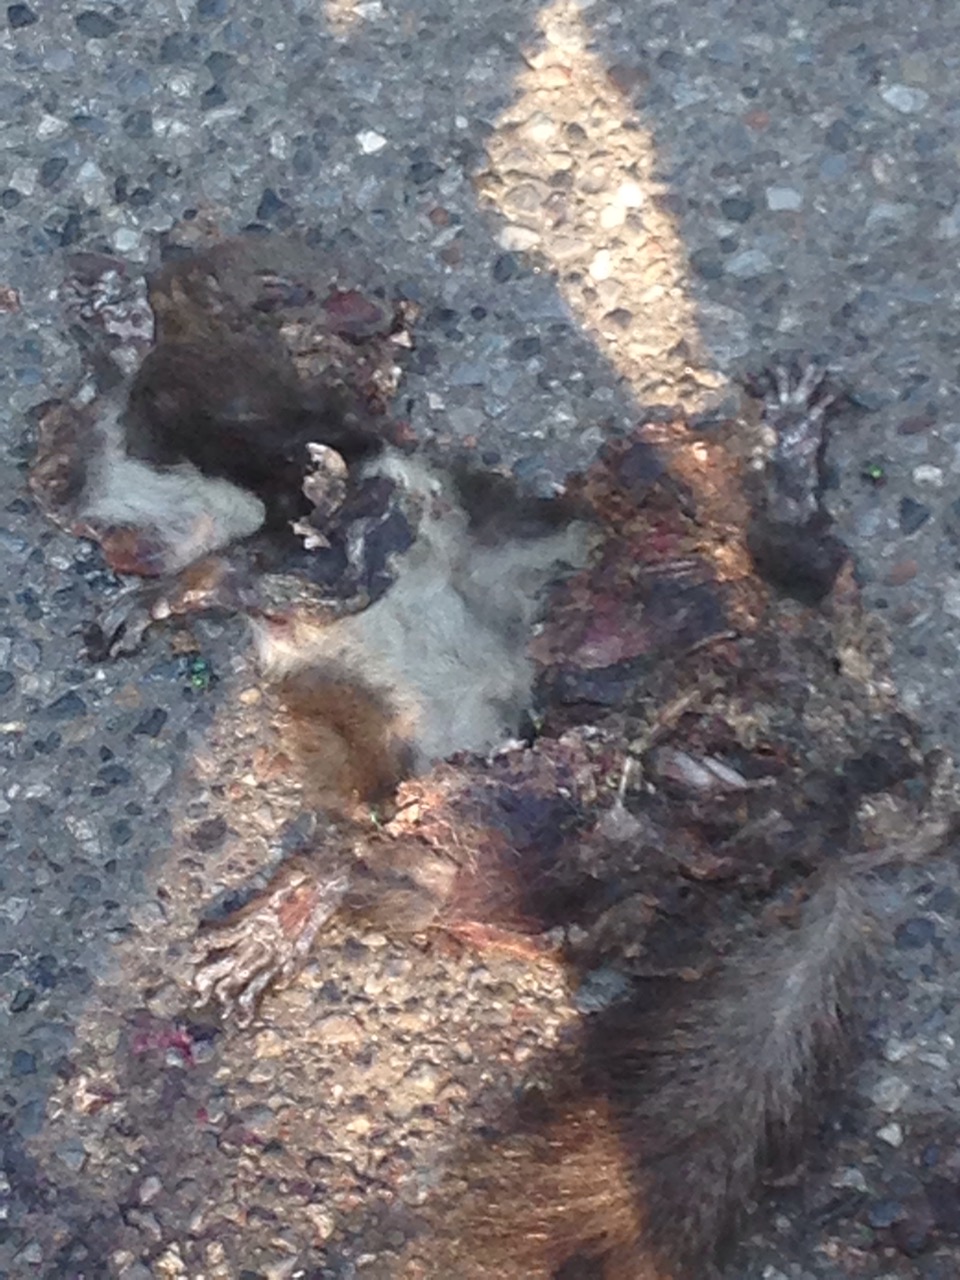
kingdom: Animalia
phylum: Chordata
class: Mammalia
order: Rodentia
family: Sciuridae
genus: Sciurus
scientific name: Sciurus vulgaris
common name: Eurasian red squirrel
